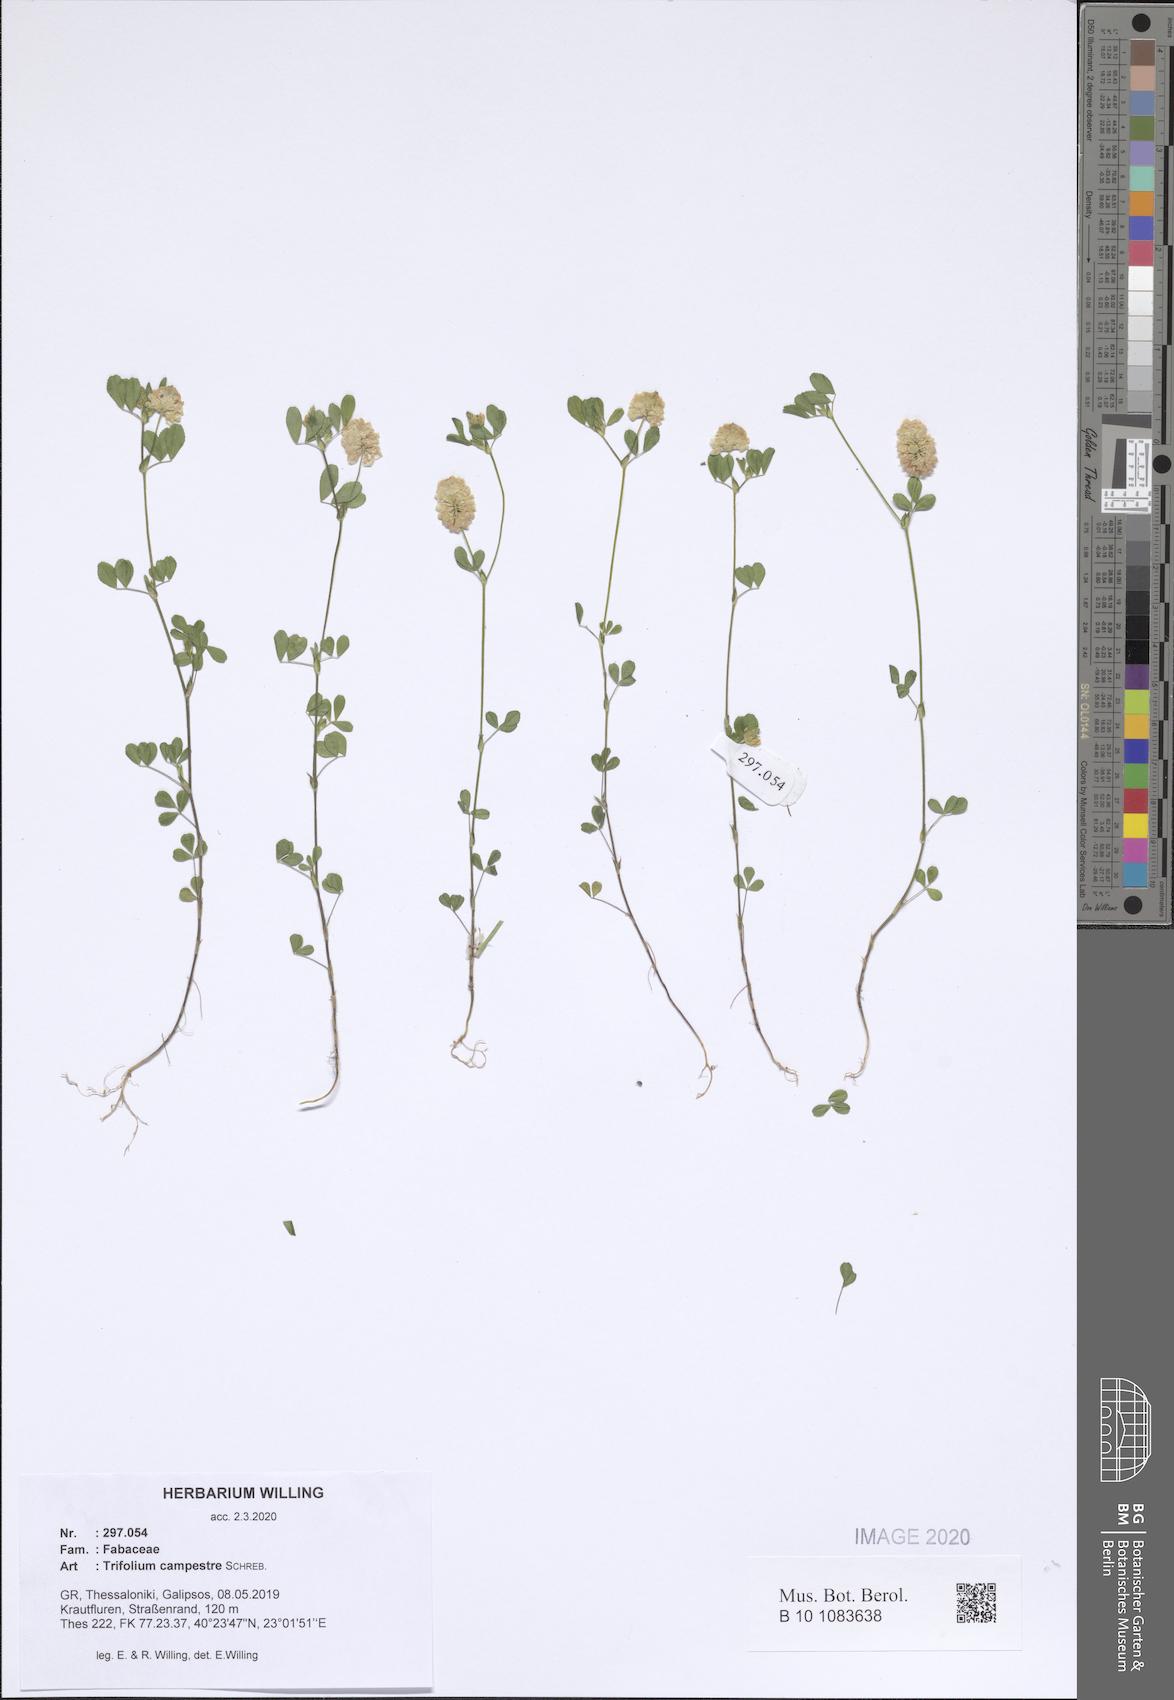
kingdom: Plantae
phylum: Tracheophyta
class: Magnoliopsida
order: Fabales
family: Fabaceae
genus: Trifolium
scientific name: Trifolium campestre
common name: Field clover
